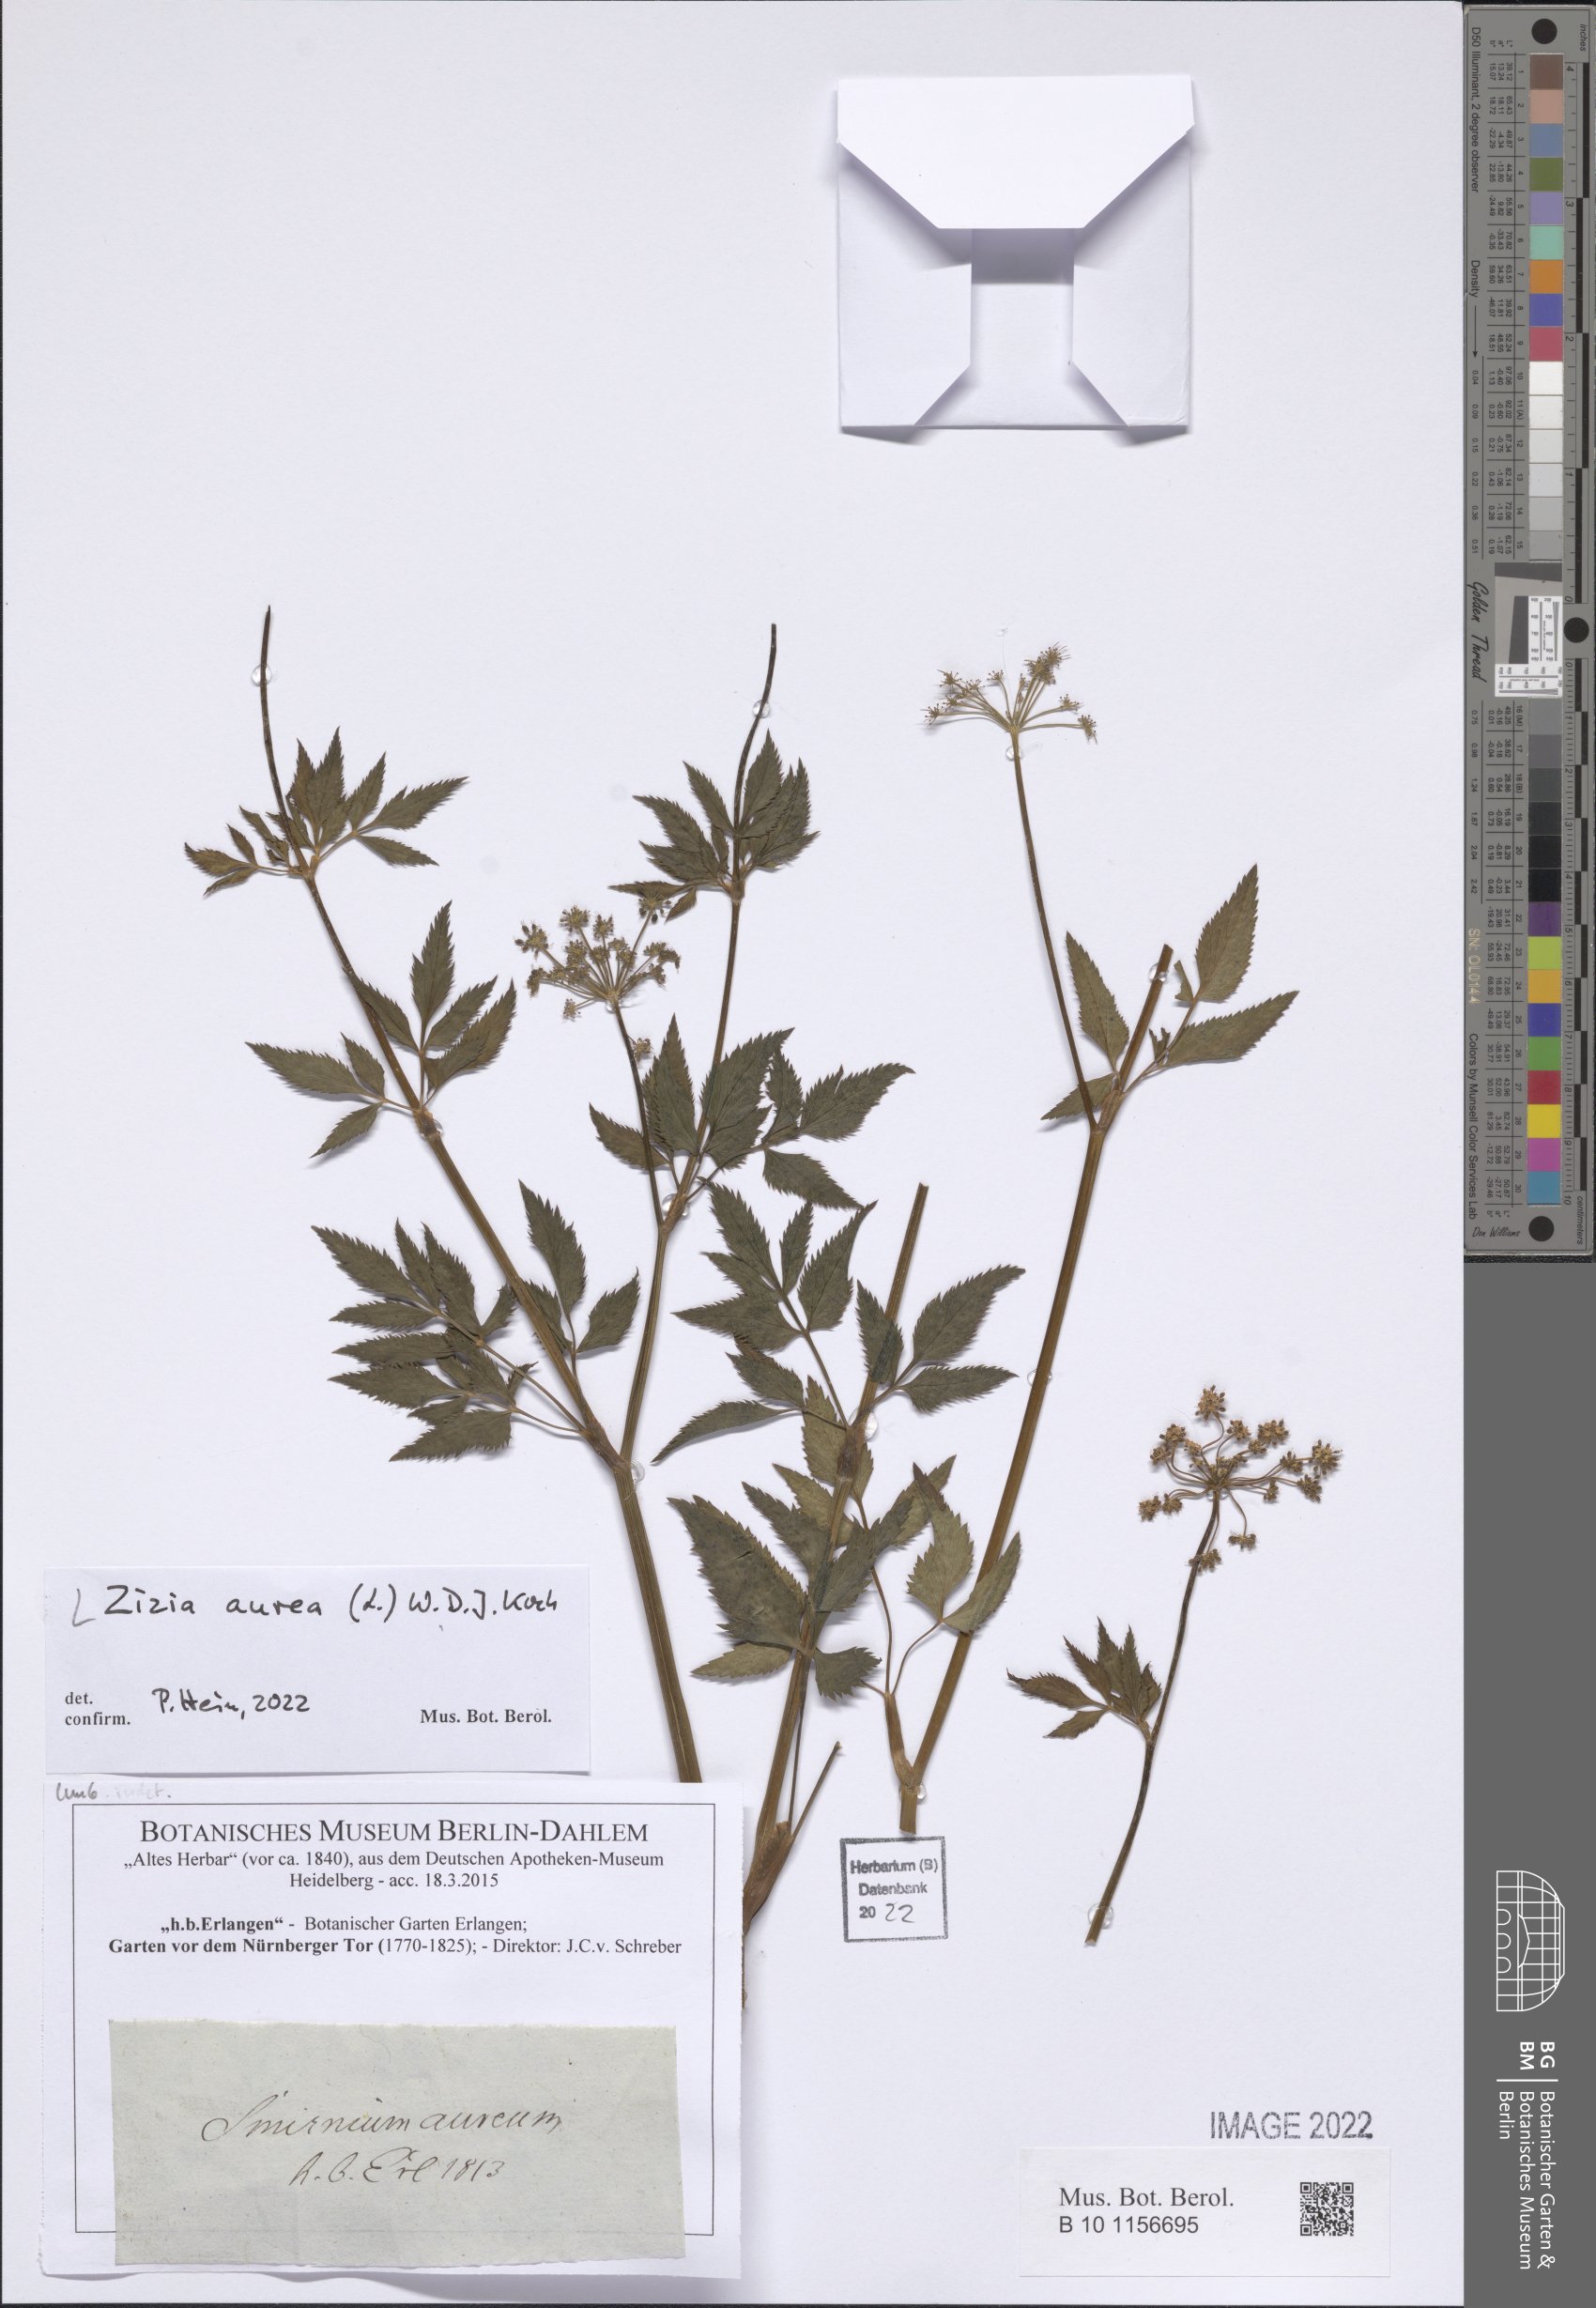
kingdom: Plantae
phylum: Tracheophyta
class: Magnoliopsida
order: Apiales
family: Apiaceae
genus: Zizia
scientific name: Zizia aurea
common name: Golden alexanders
